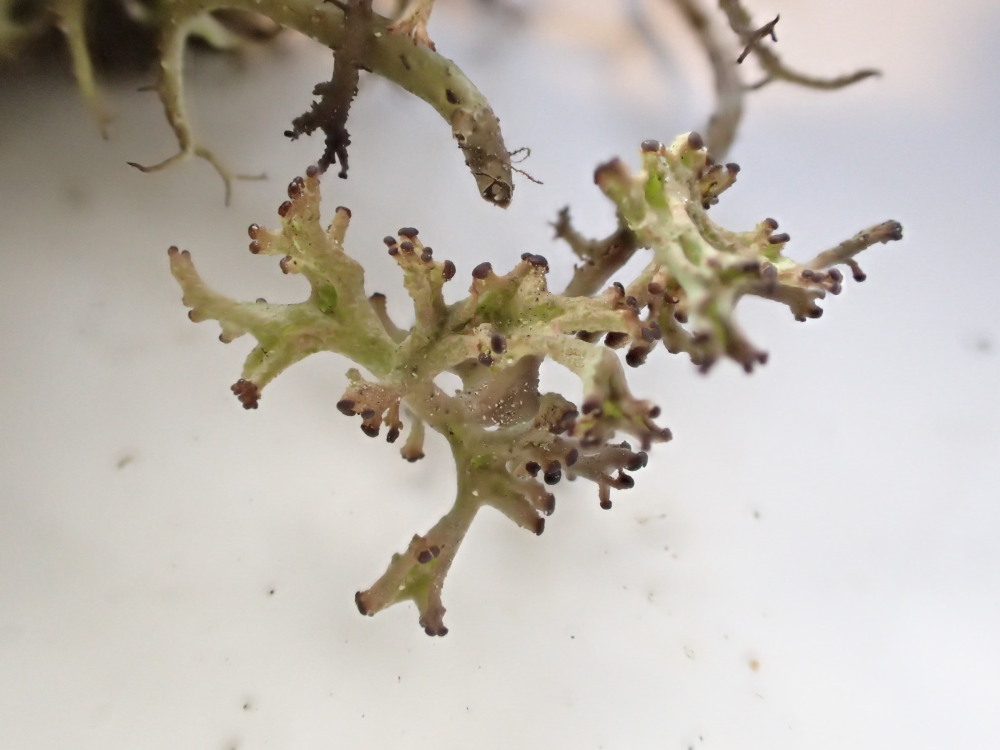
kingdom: Fungi
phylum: Ascomycota
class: Lecanoromycetes
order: Lecanorales
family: Cladoniaceae
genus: Cladonia
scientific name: Cladonia furcata
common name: kløftet bægerlav
